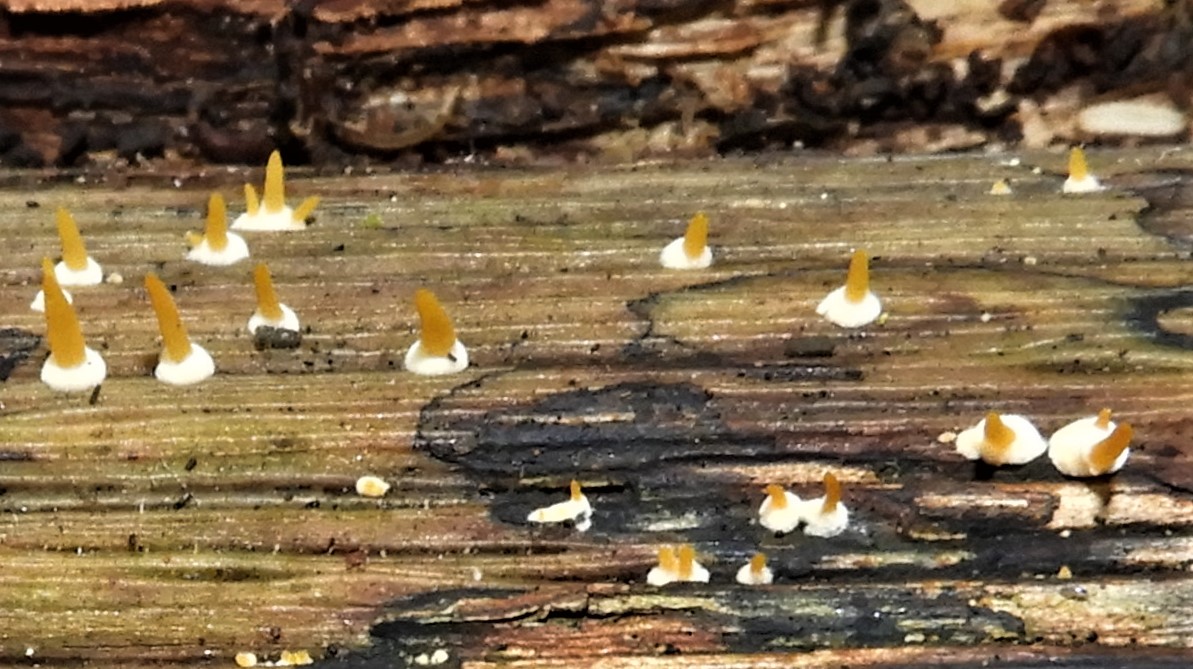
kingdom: Fungi
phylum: Basidiomycota
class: Dacrymycetes
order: Dacrymycetales
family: Dacrymycetaceae
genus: Calocera
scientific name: Calocera cornea
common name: liden guldgaffel
